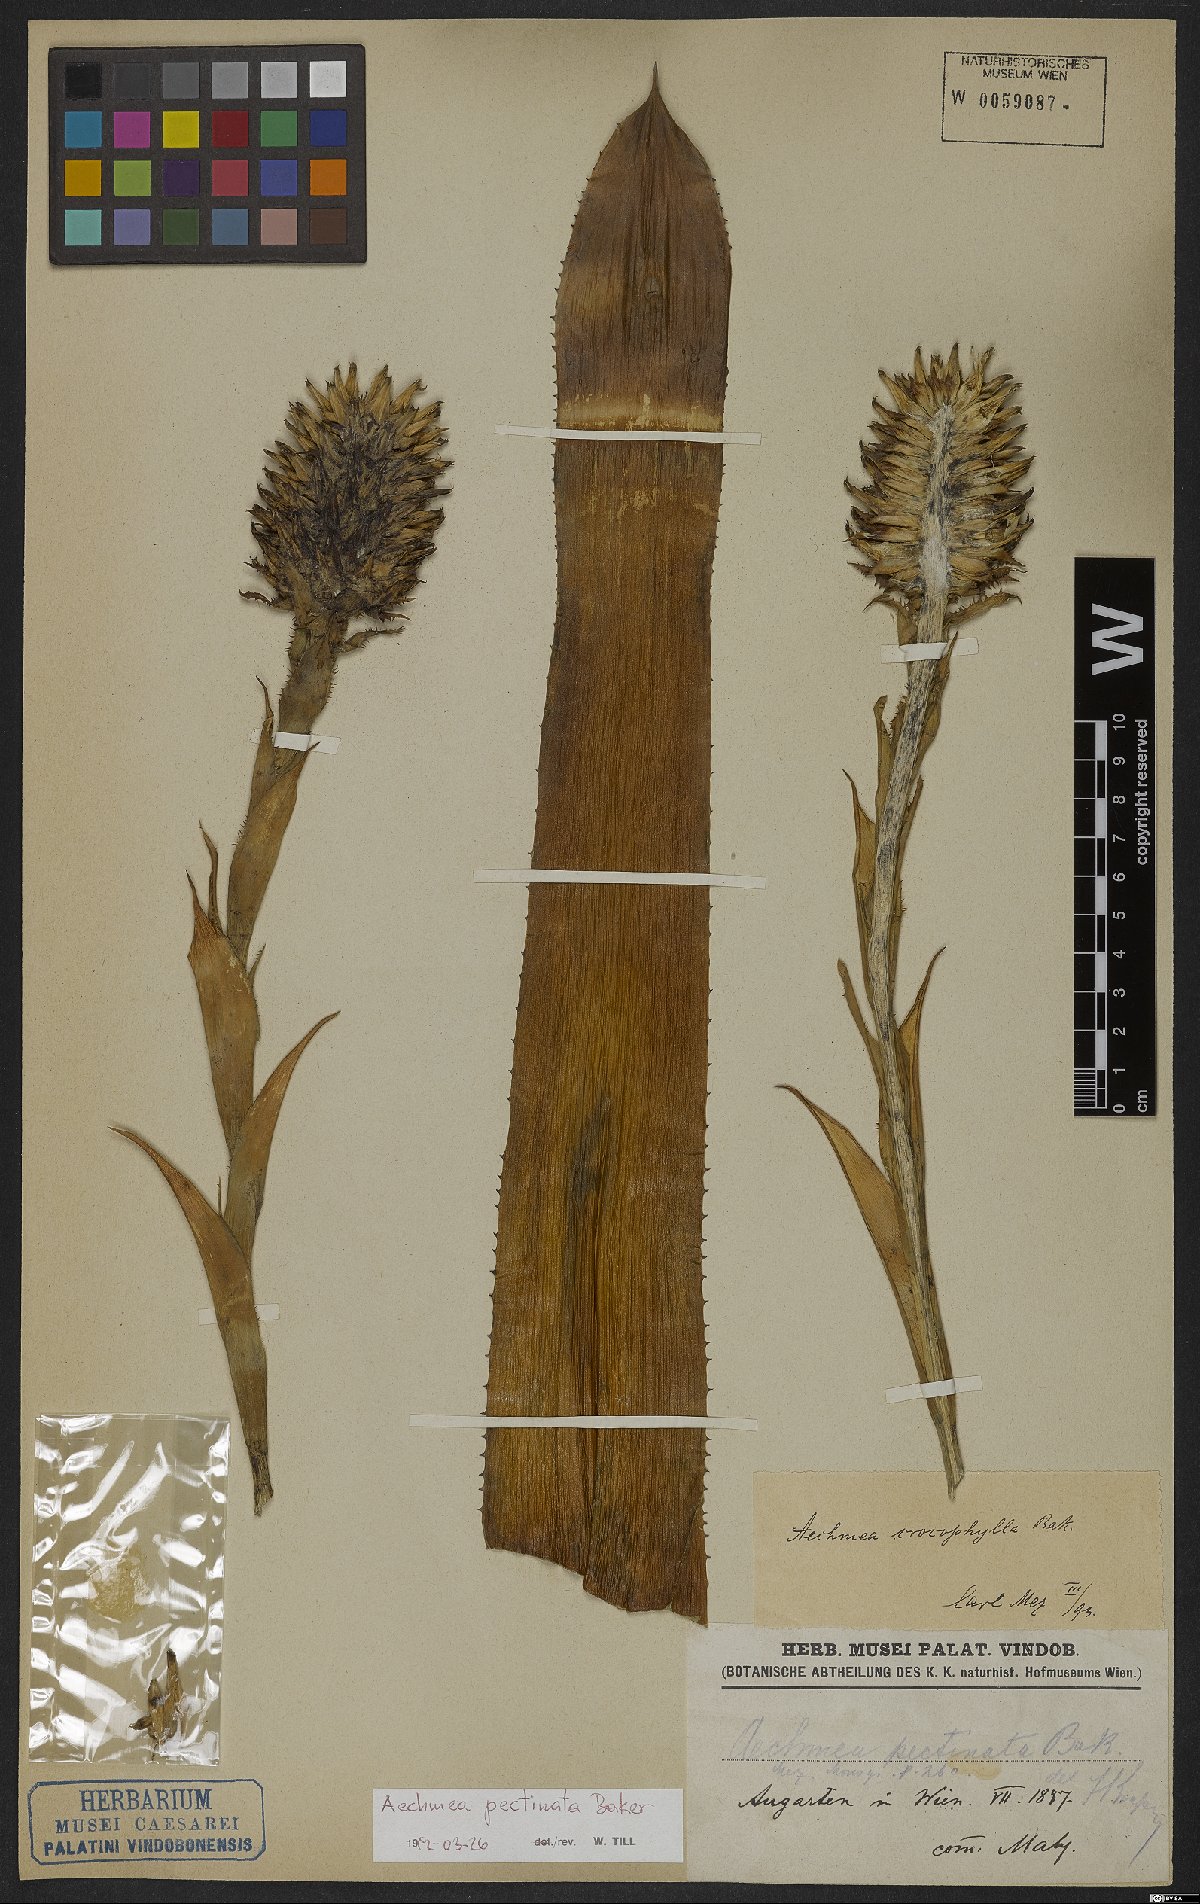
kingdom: Plantae
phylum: Tracheophyta
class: Liliopsida
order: Poales
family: Bromeliaceae
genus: Aechmea
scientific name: Aechmea pectinata
